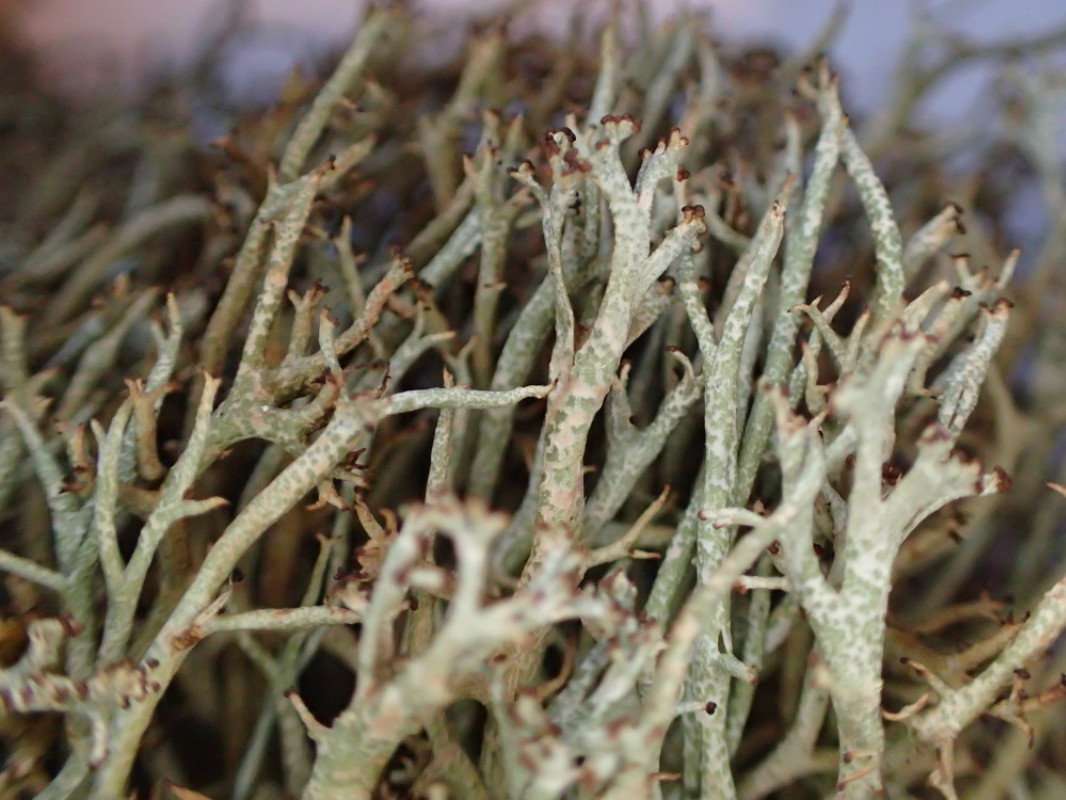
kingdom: Fungi
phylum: Ascomycota
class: Lecanoromycetes
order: Lecanorales
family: Cladoniaceae
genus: Cladonia
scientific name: Cladonia rangiformis
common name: spættet bægerlav
